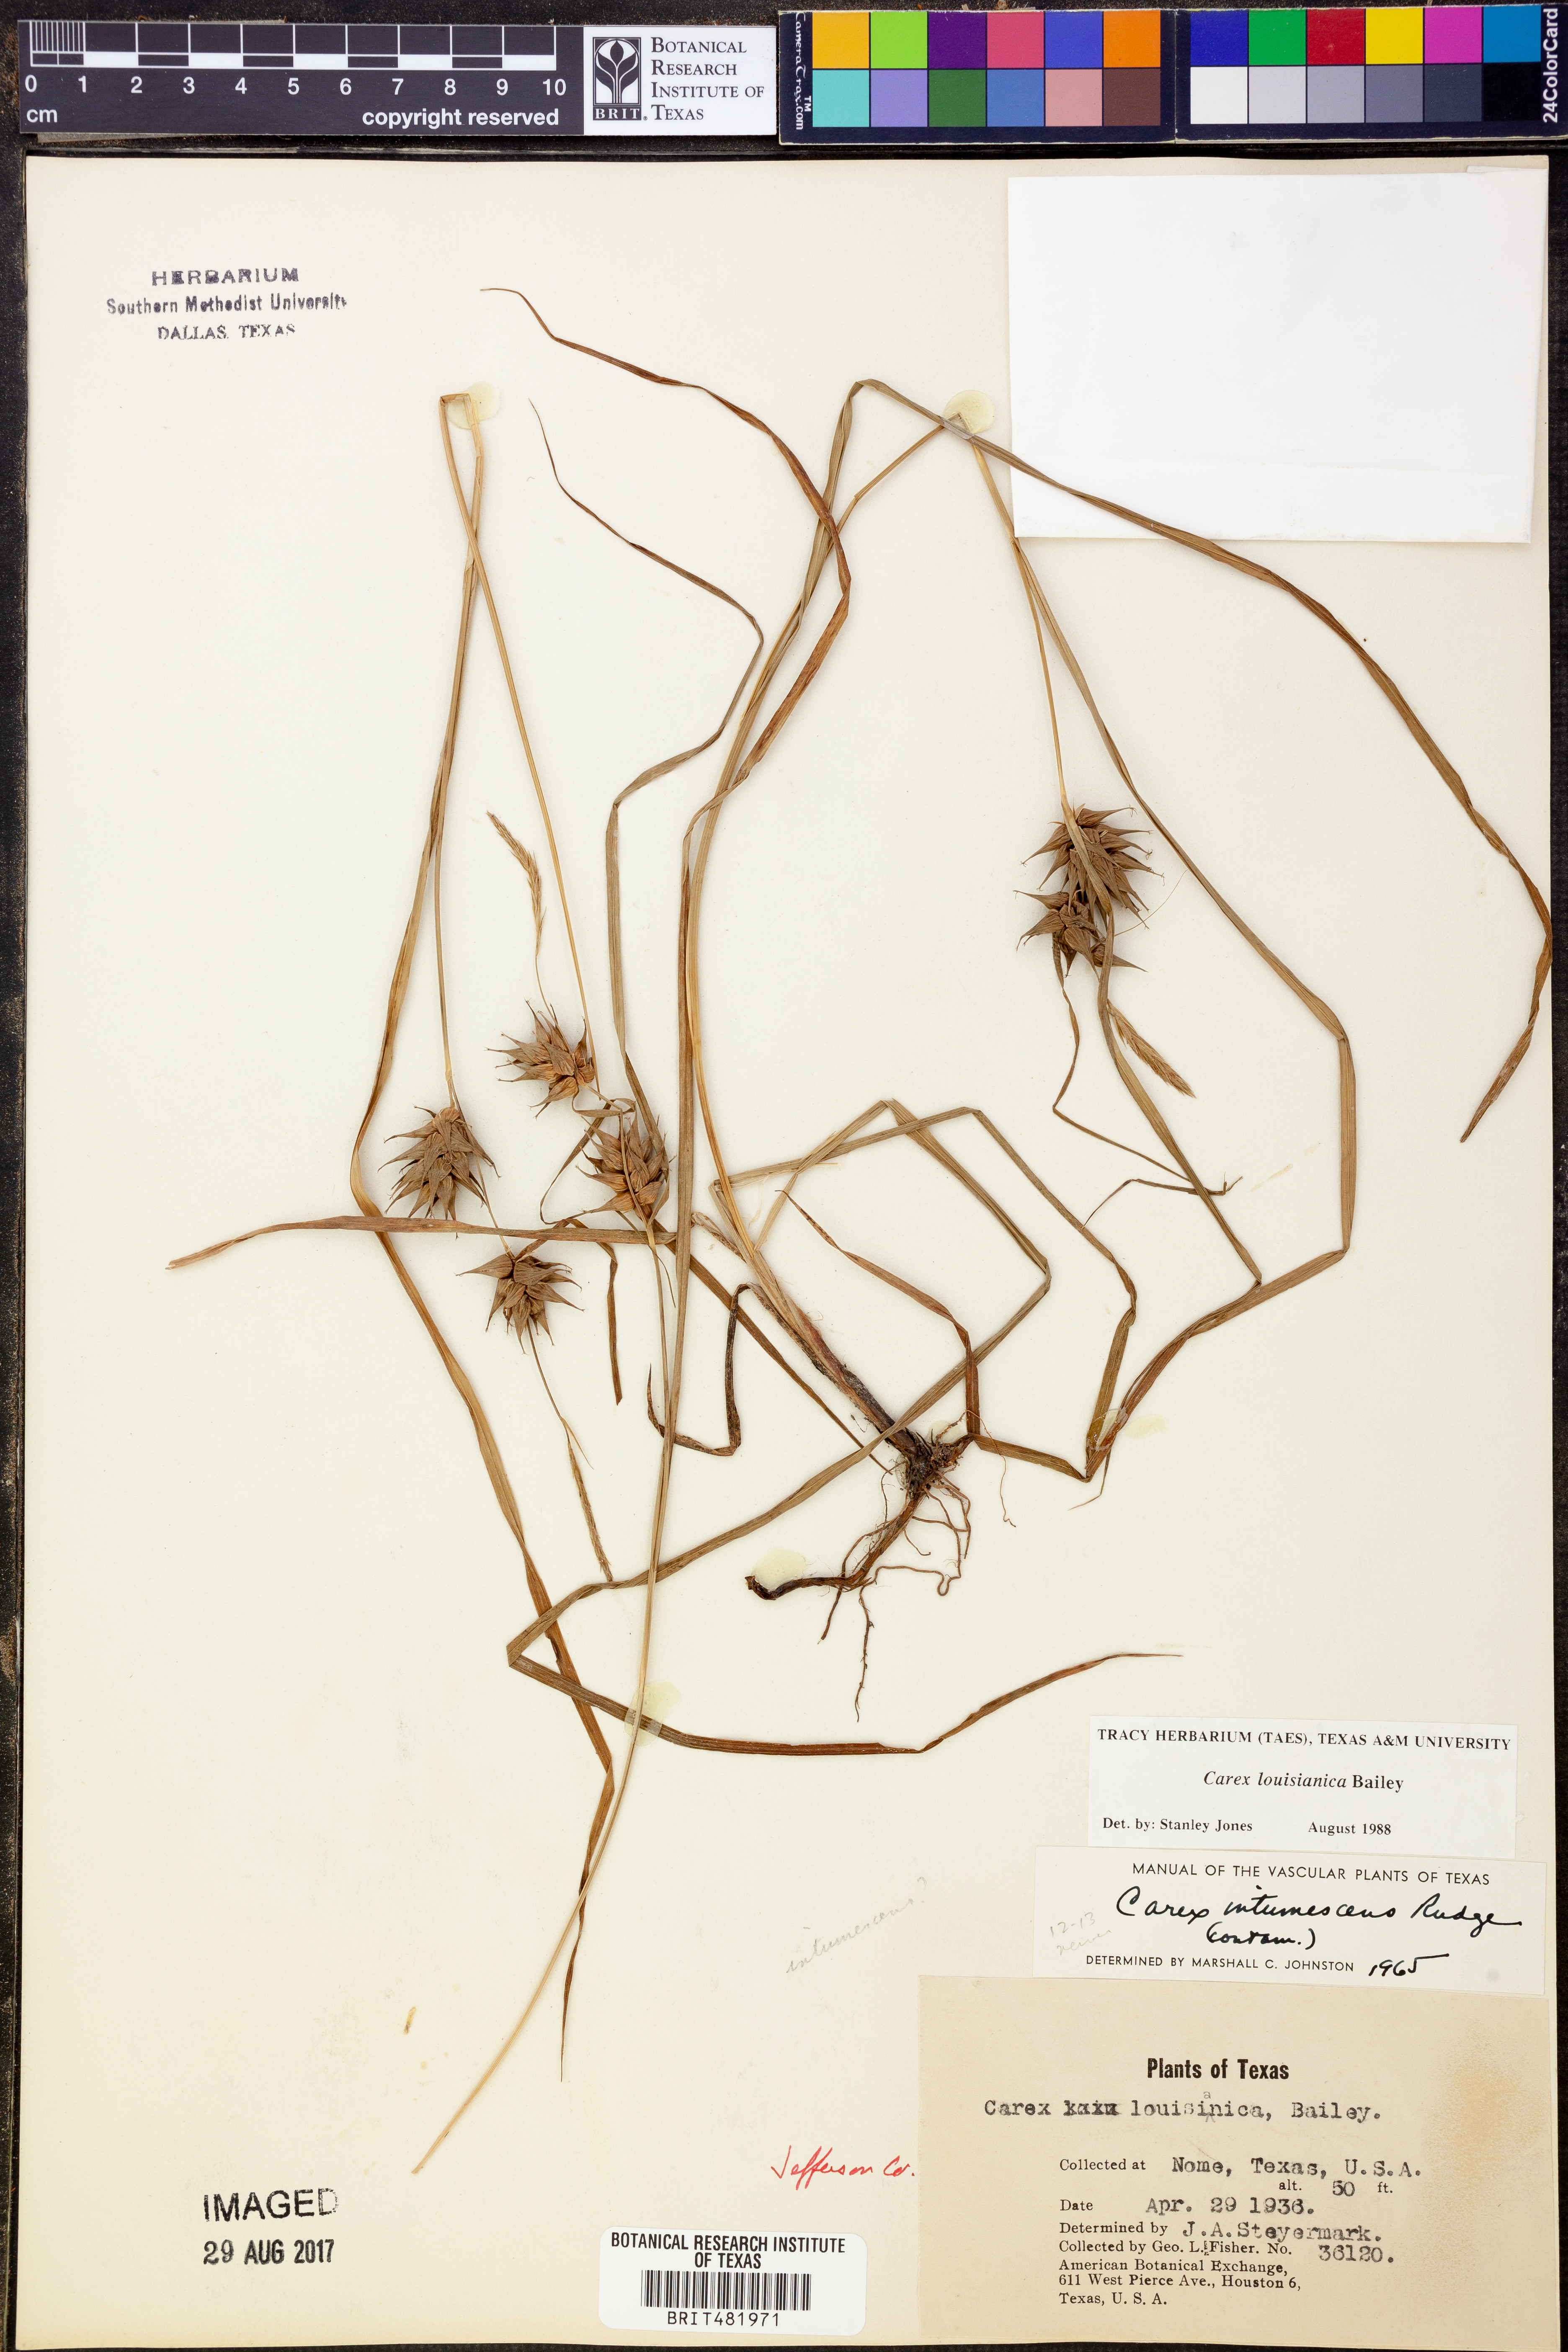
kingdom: Plantae
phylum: Tracheophyta
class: Liliopsida
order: Poales
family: Cyperaceae
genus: Carex
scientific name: Carex louisianica
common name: Louisiana sedge
